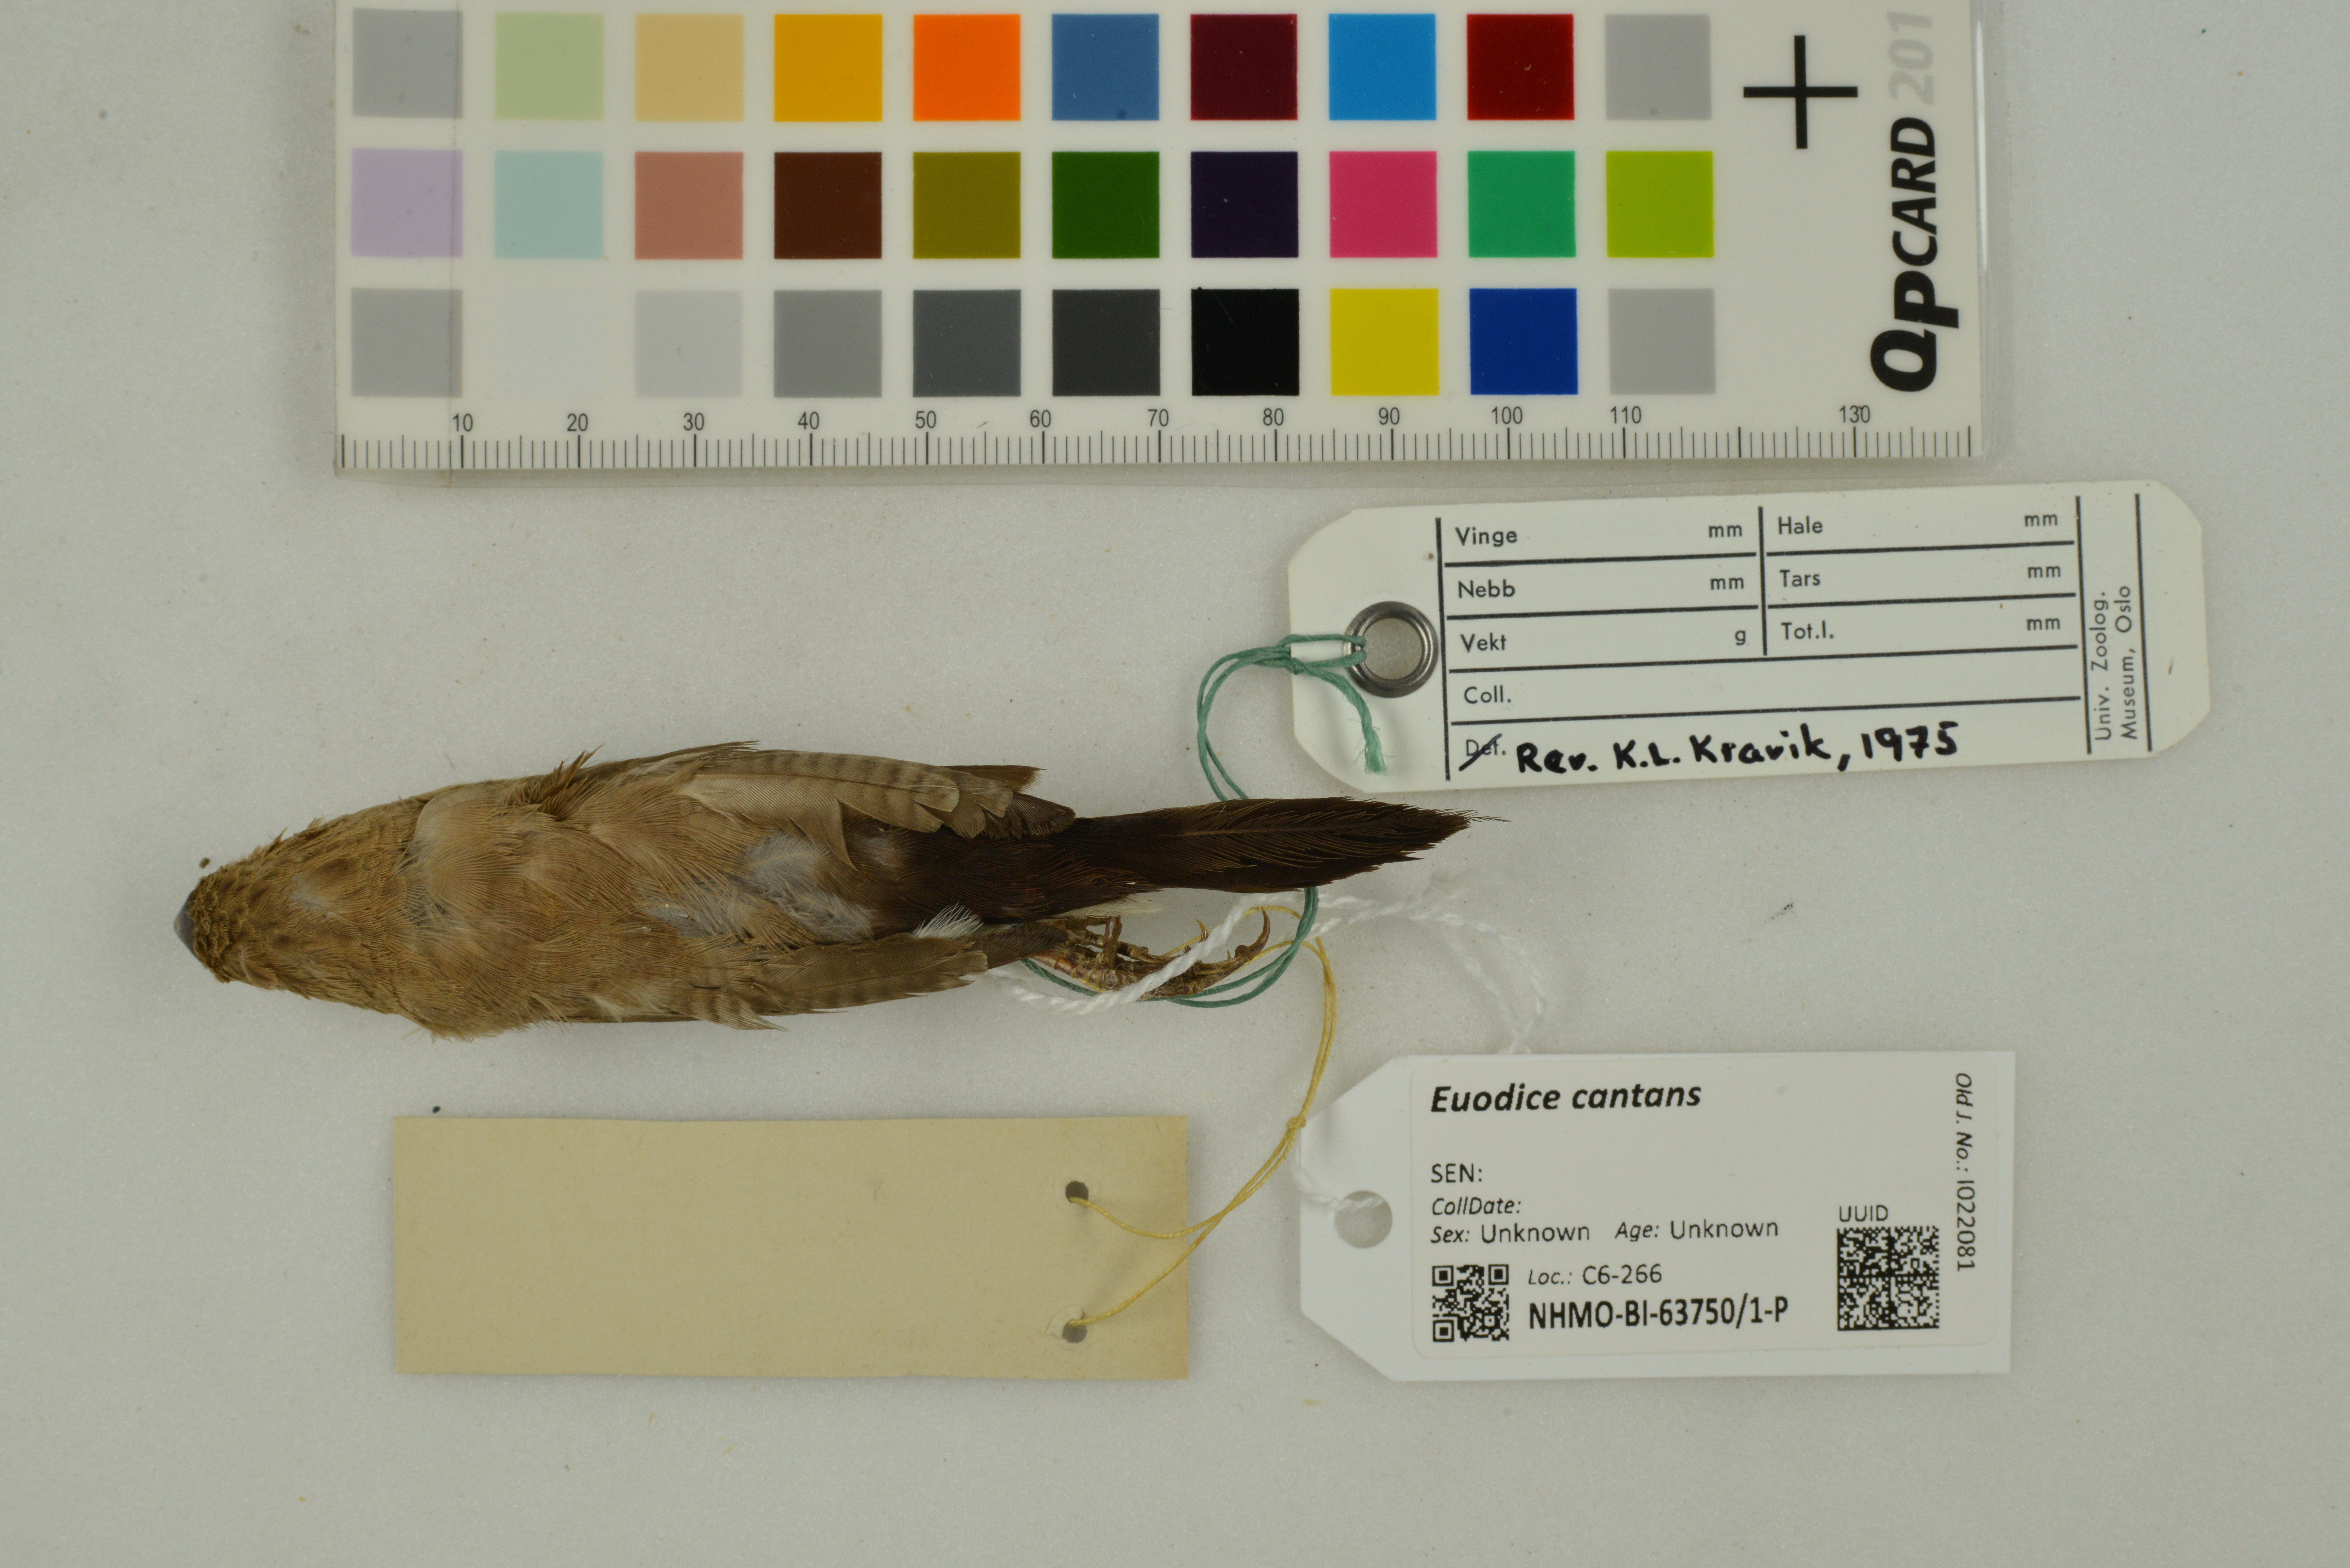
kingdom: Animalia
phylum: Chordata
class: Aves
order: Passeriformes
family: Estrildidae
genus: Euodice
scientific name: Euodice cantans
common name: African silverbill
